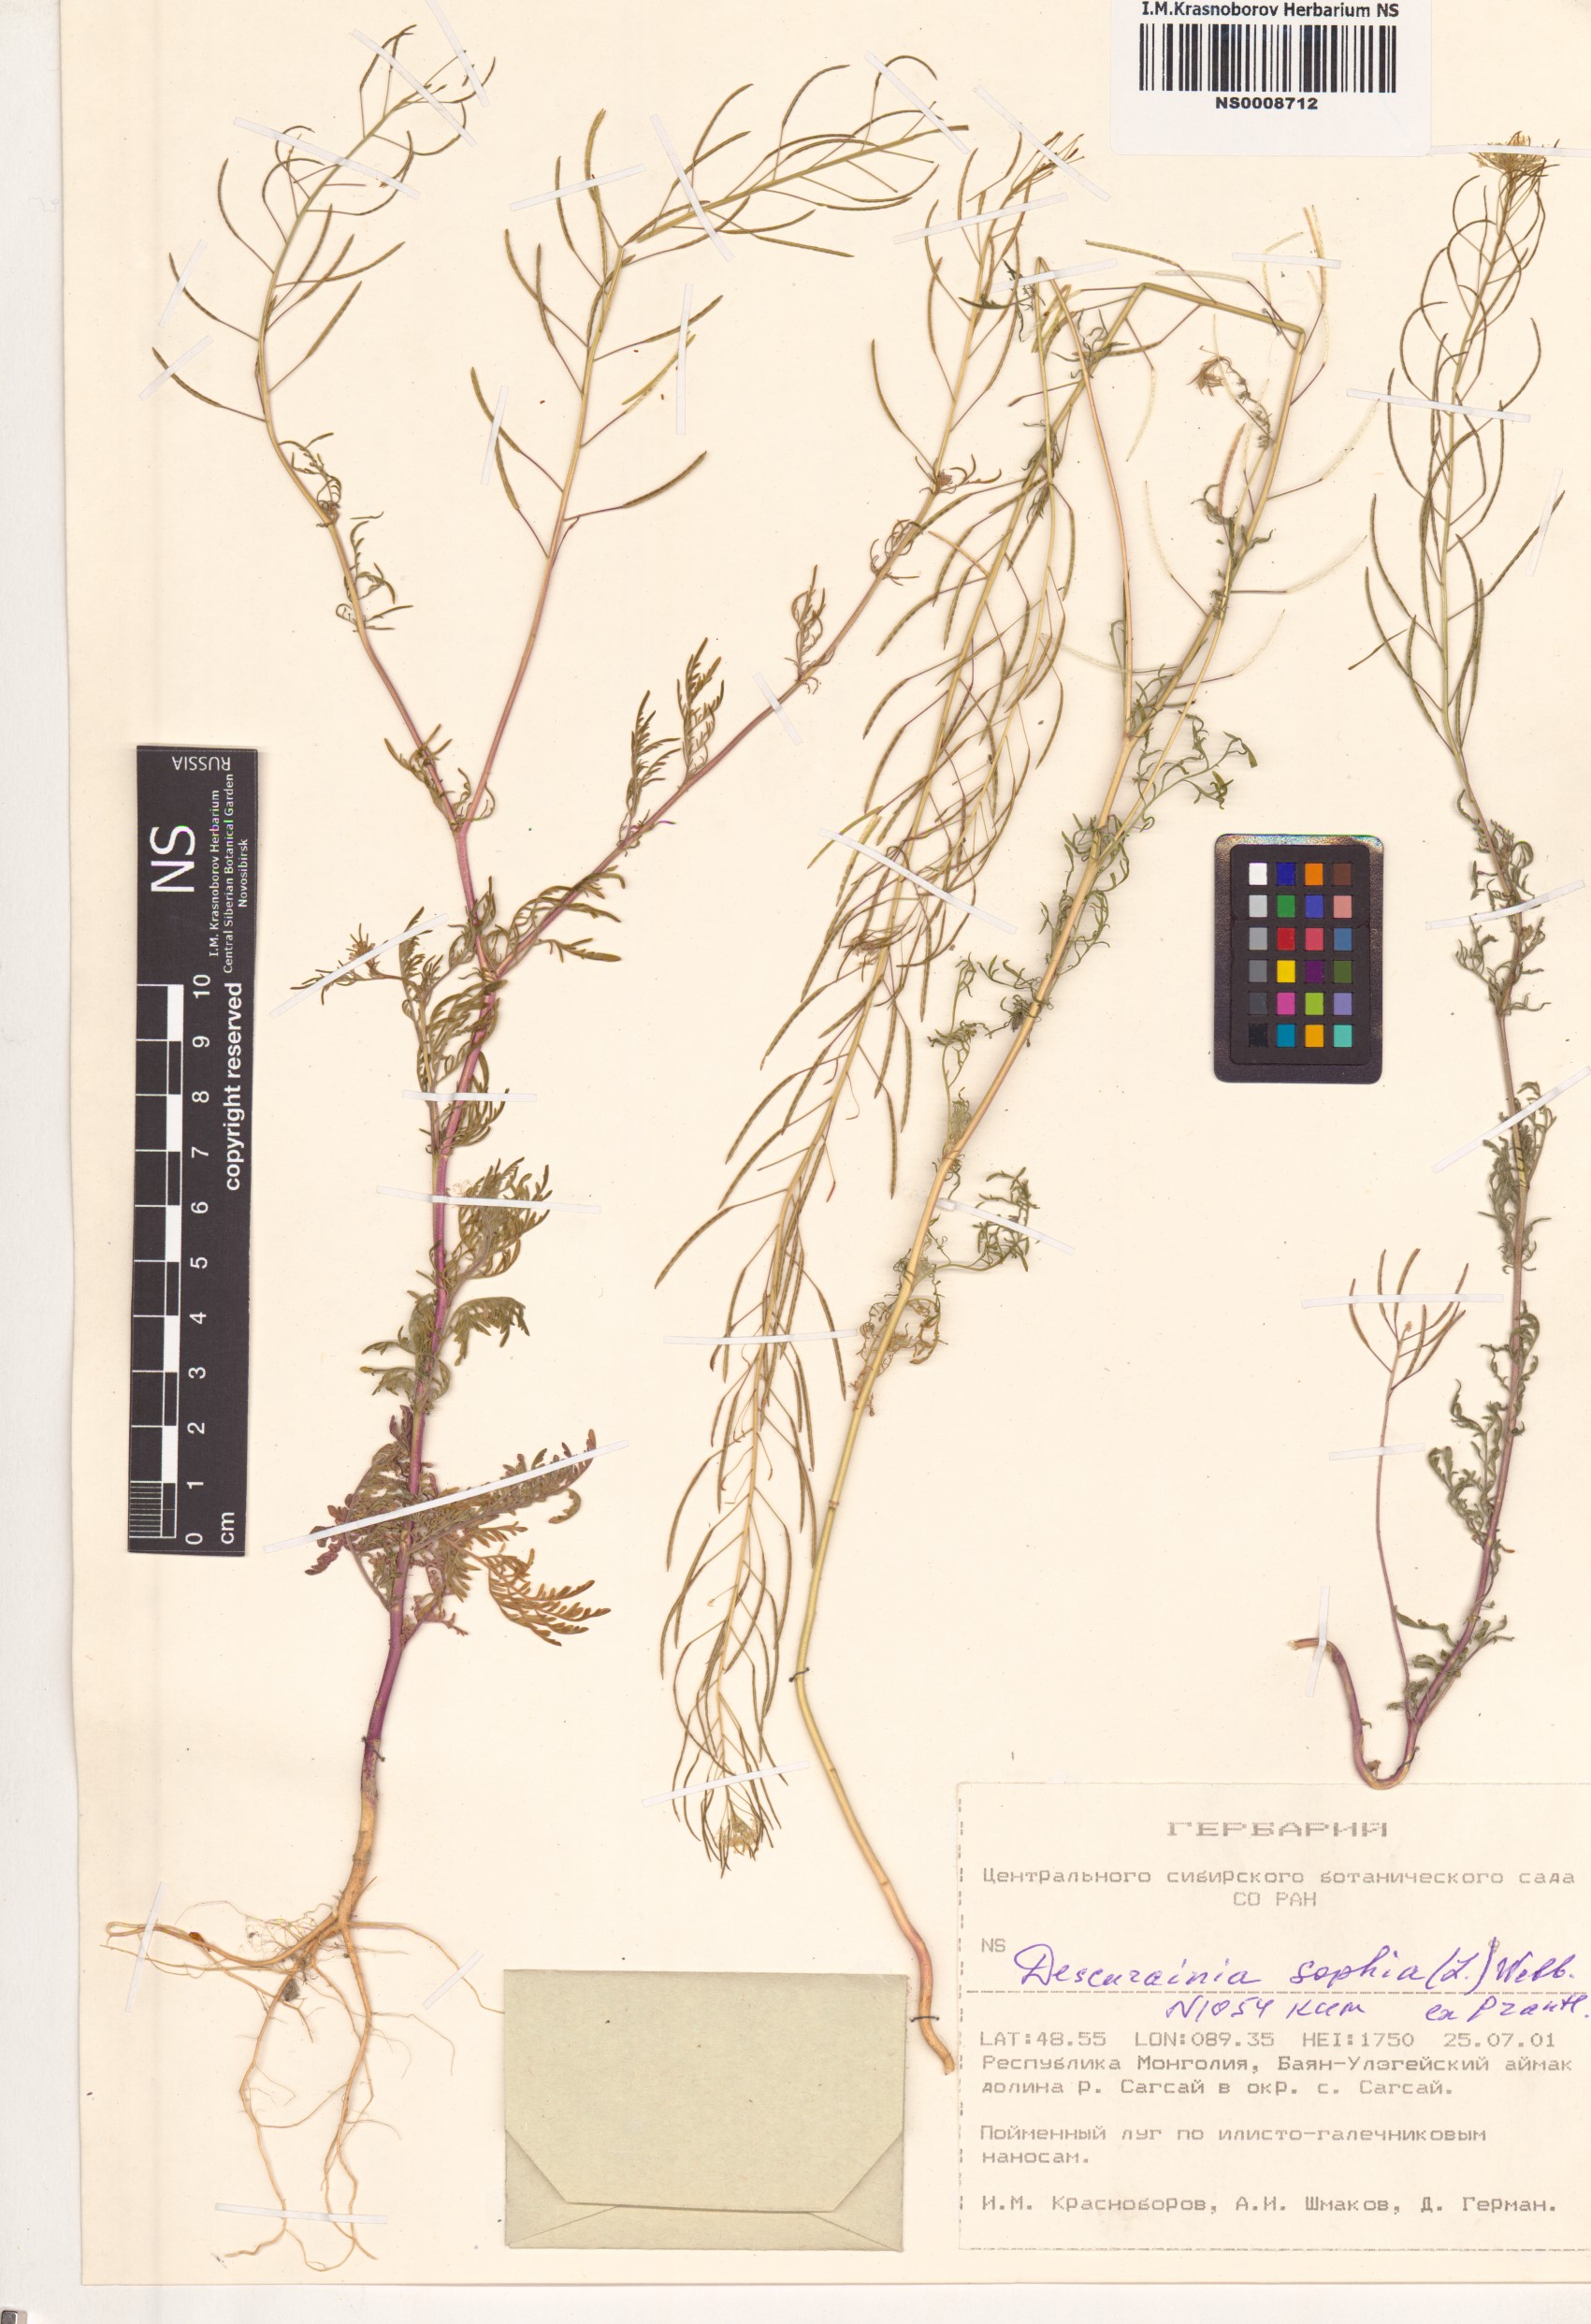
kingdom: Plantae
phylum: Tracheophyta
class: Magnoliopsida
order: Brassicales
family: Brassicaceae
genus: Descurainia
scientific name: Descurainia sophia
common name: Flixweed
